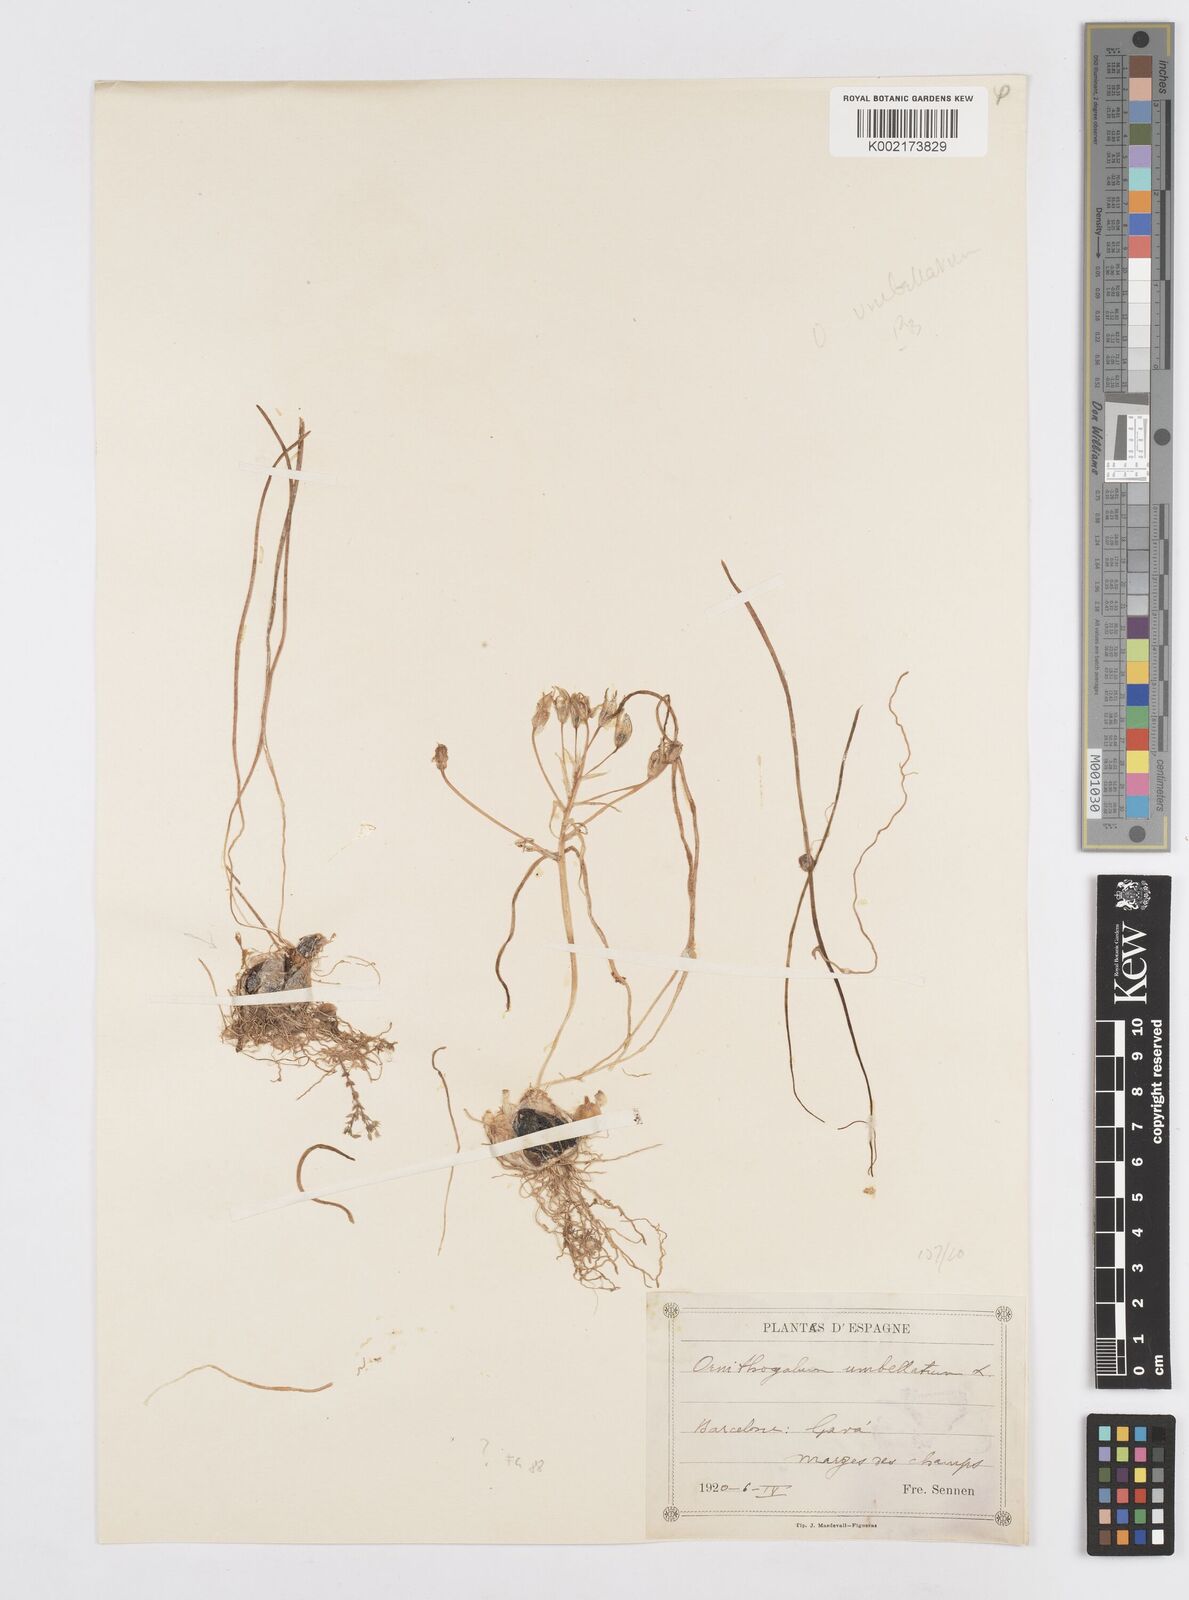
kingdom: Plantae
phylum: Tracheophyta
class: Liliopsida
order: Asparagales
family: Asparagaceae
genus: Ornithogalum
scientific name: Ornithogalum umbellatum
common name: Garden star-of-bethlehem
